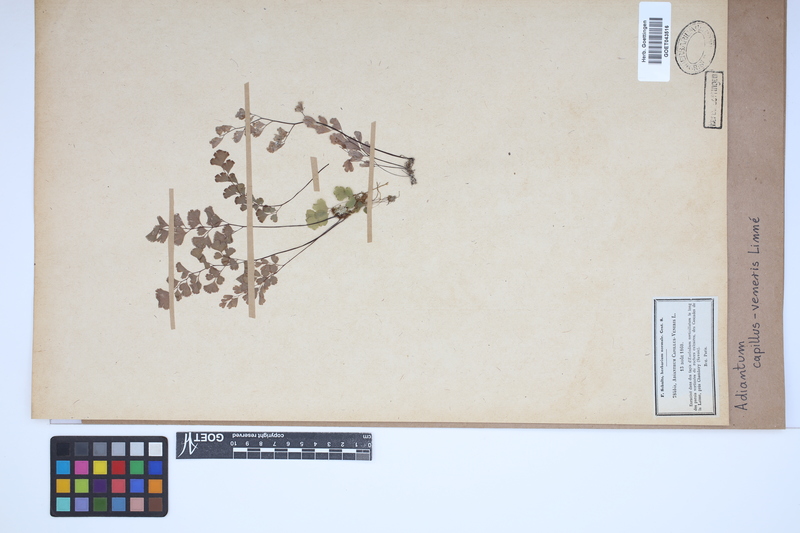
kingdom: Plantae
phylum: Tracheophyta
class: Polypodiopsida
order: Polypodiales
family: Pteridaceae
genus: Adiantum
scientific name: Adiantum capillus-veneris
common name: Maidenhair fern
